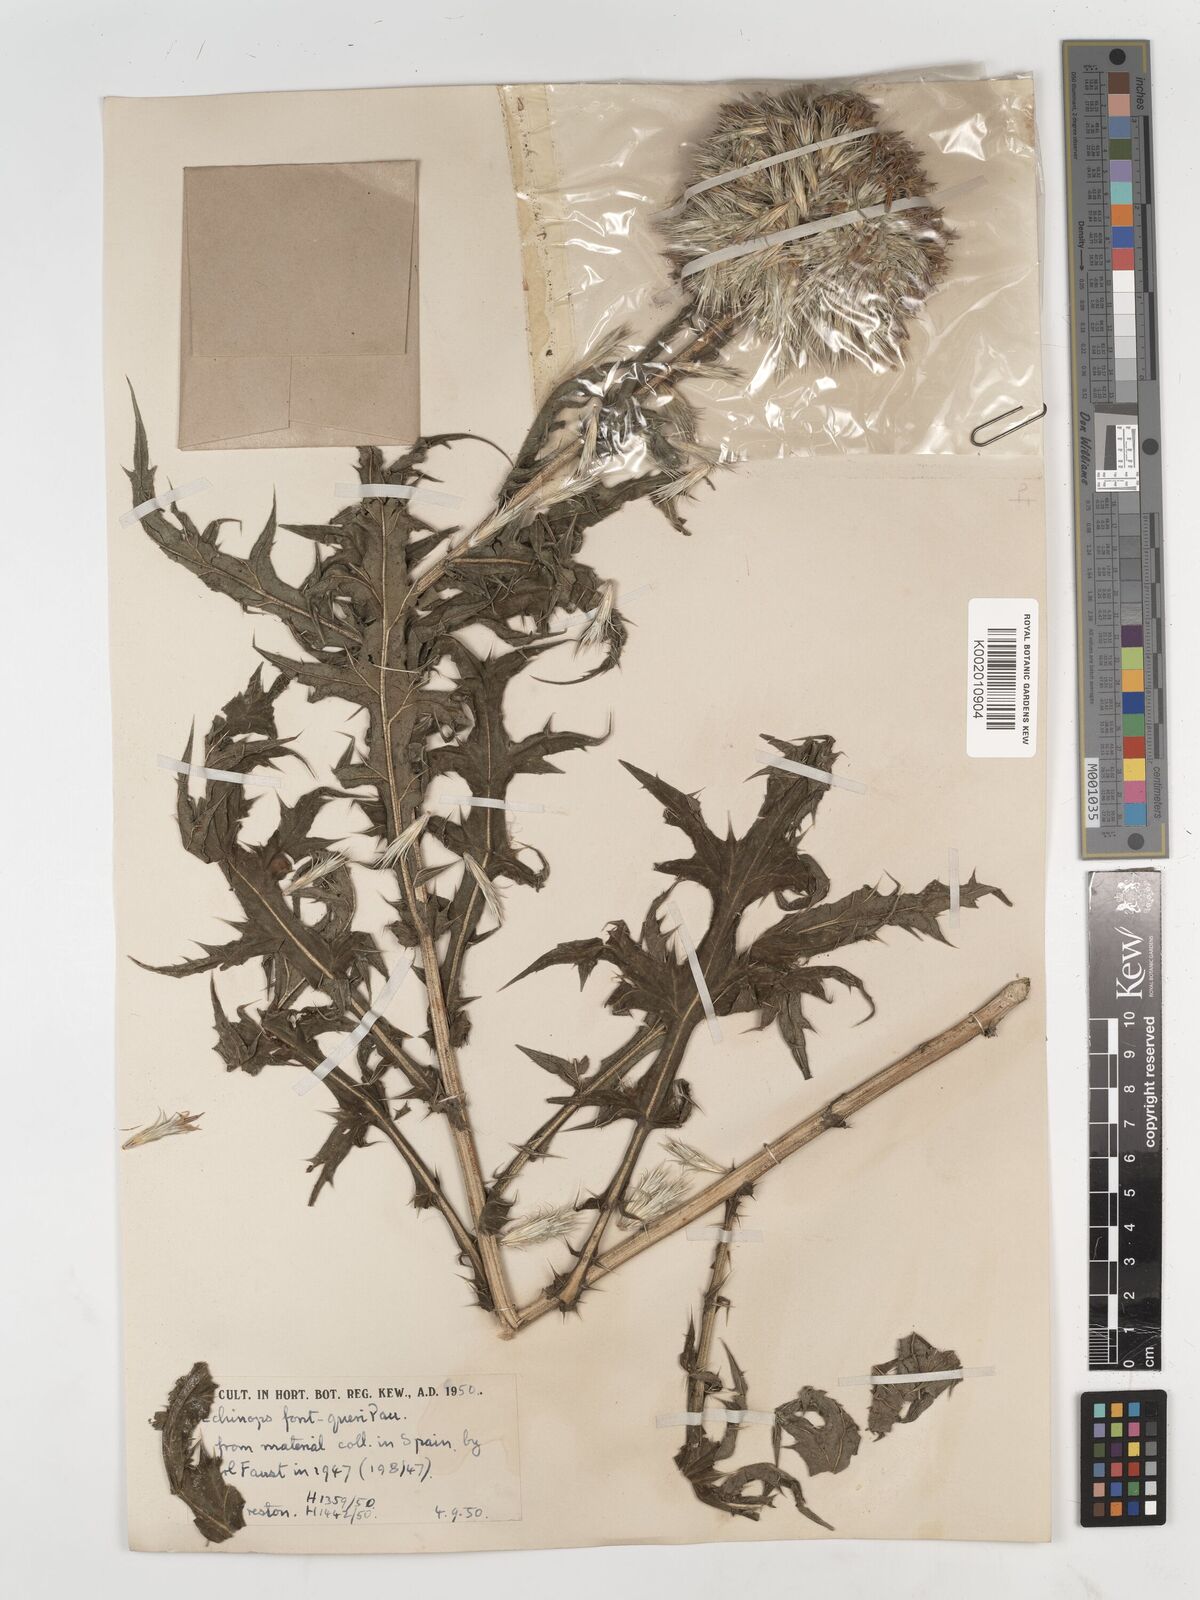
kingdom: Plantae
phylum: Tracheophyta
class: Magnoliopsida
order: Asterales
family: Asteraceae
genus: Echinops
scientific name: Echinops fontqueri
